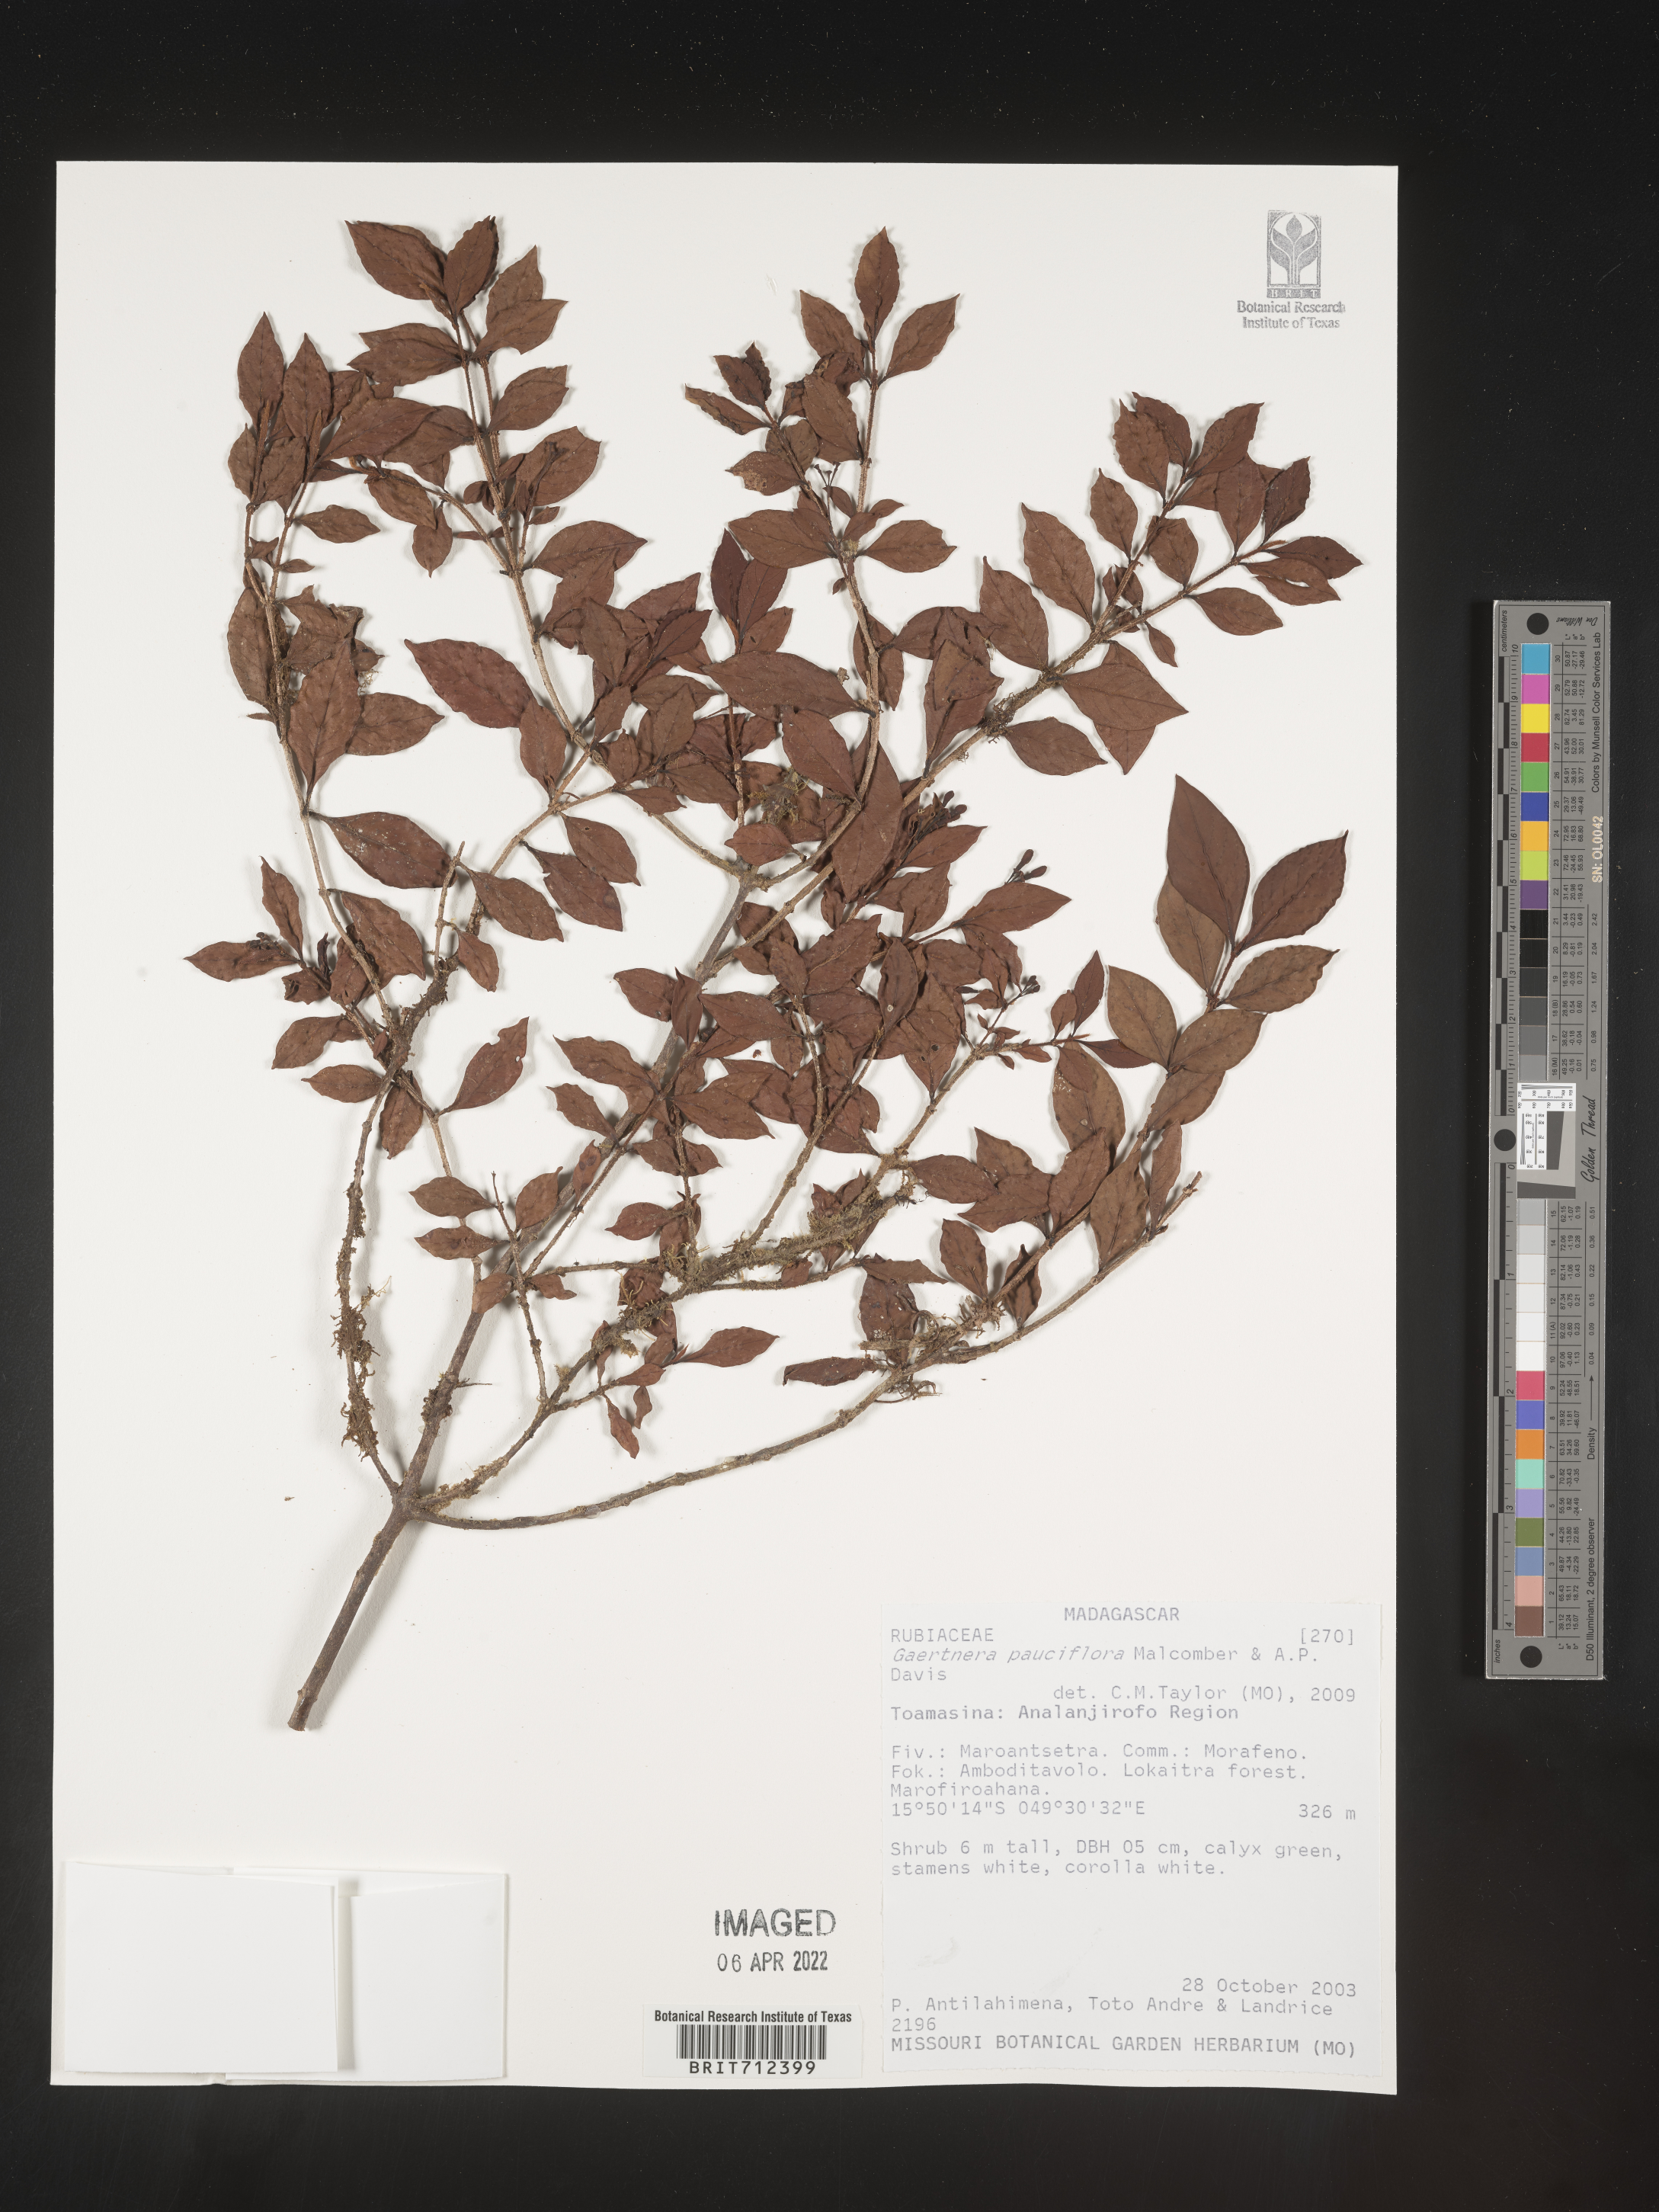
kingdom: Plantae
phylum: Tracheophyta
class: Magnoliopsida
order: Gentianales
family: Rubiaceae
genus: Gaertnera
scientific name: Gaertnera
